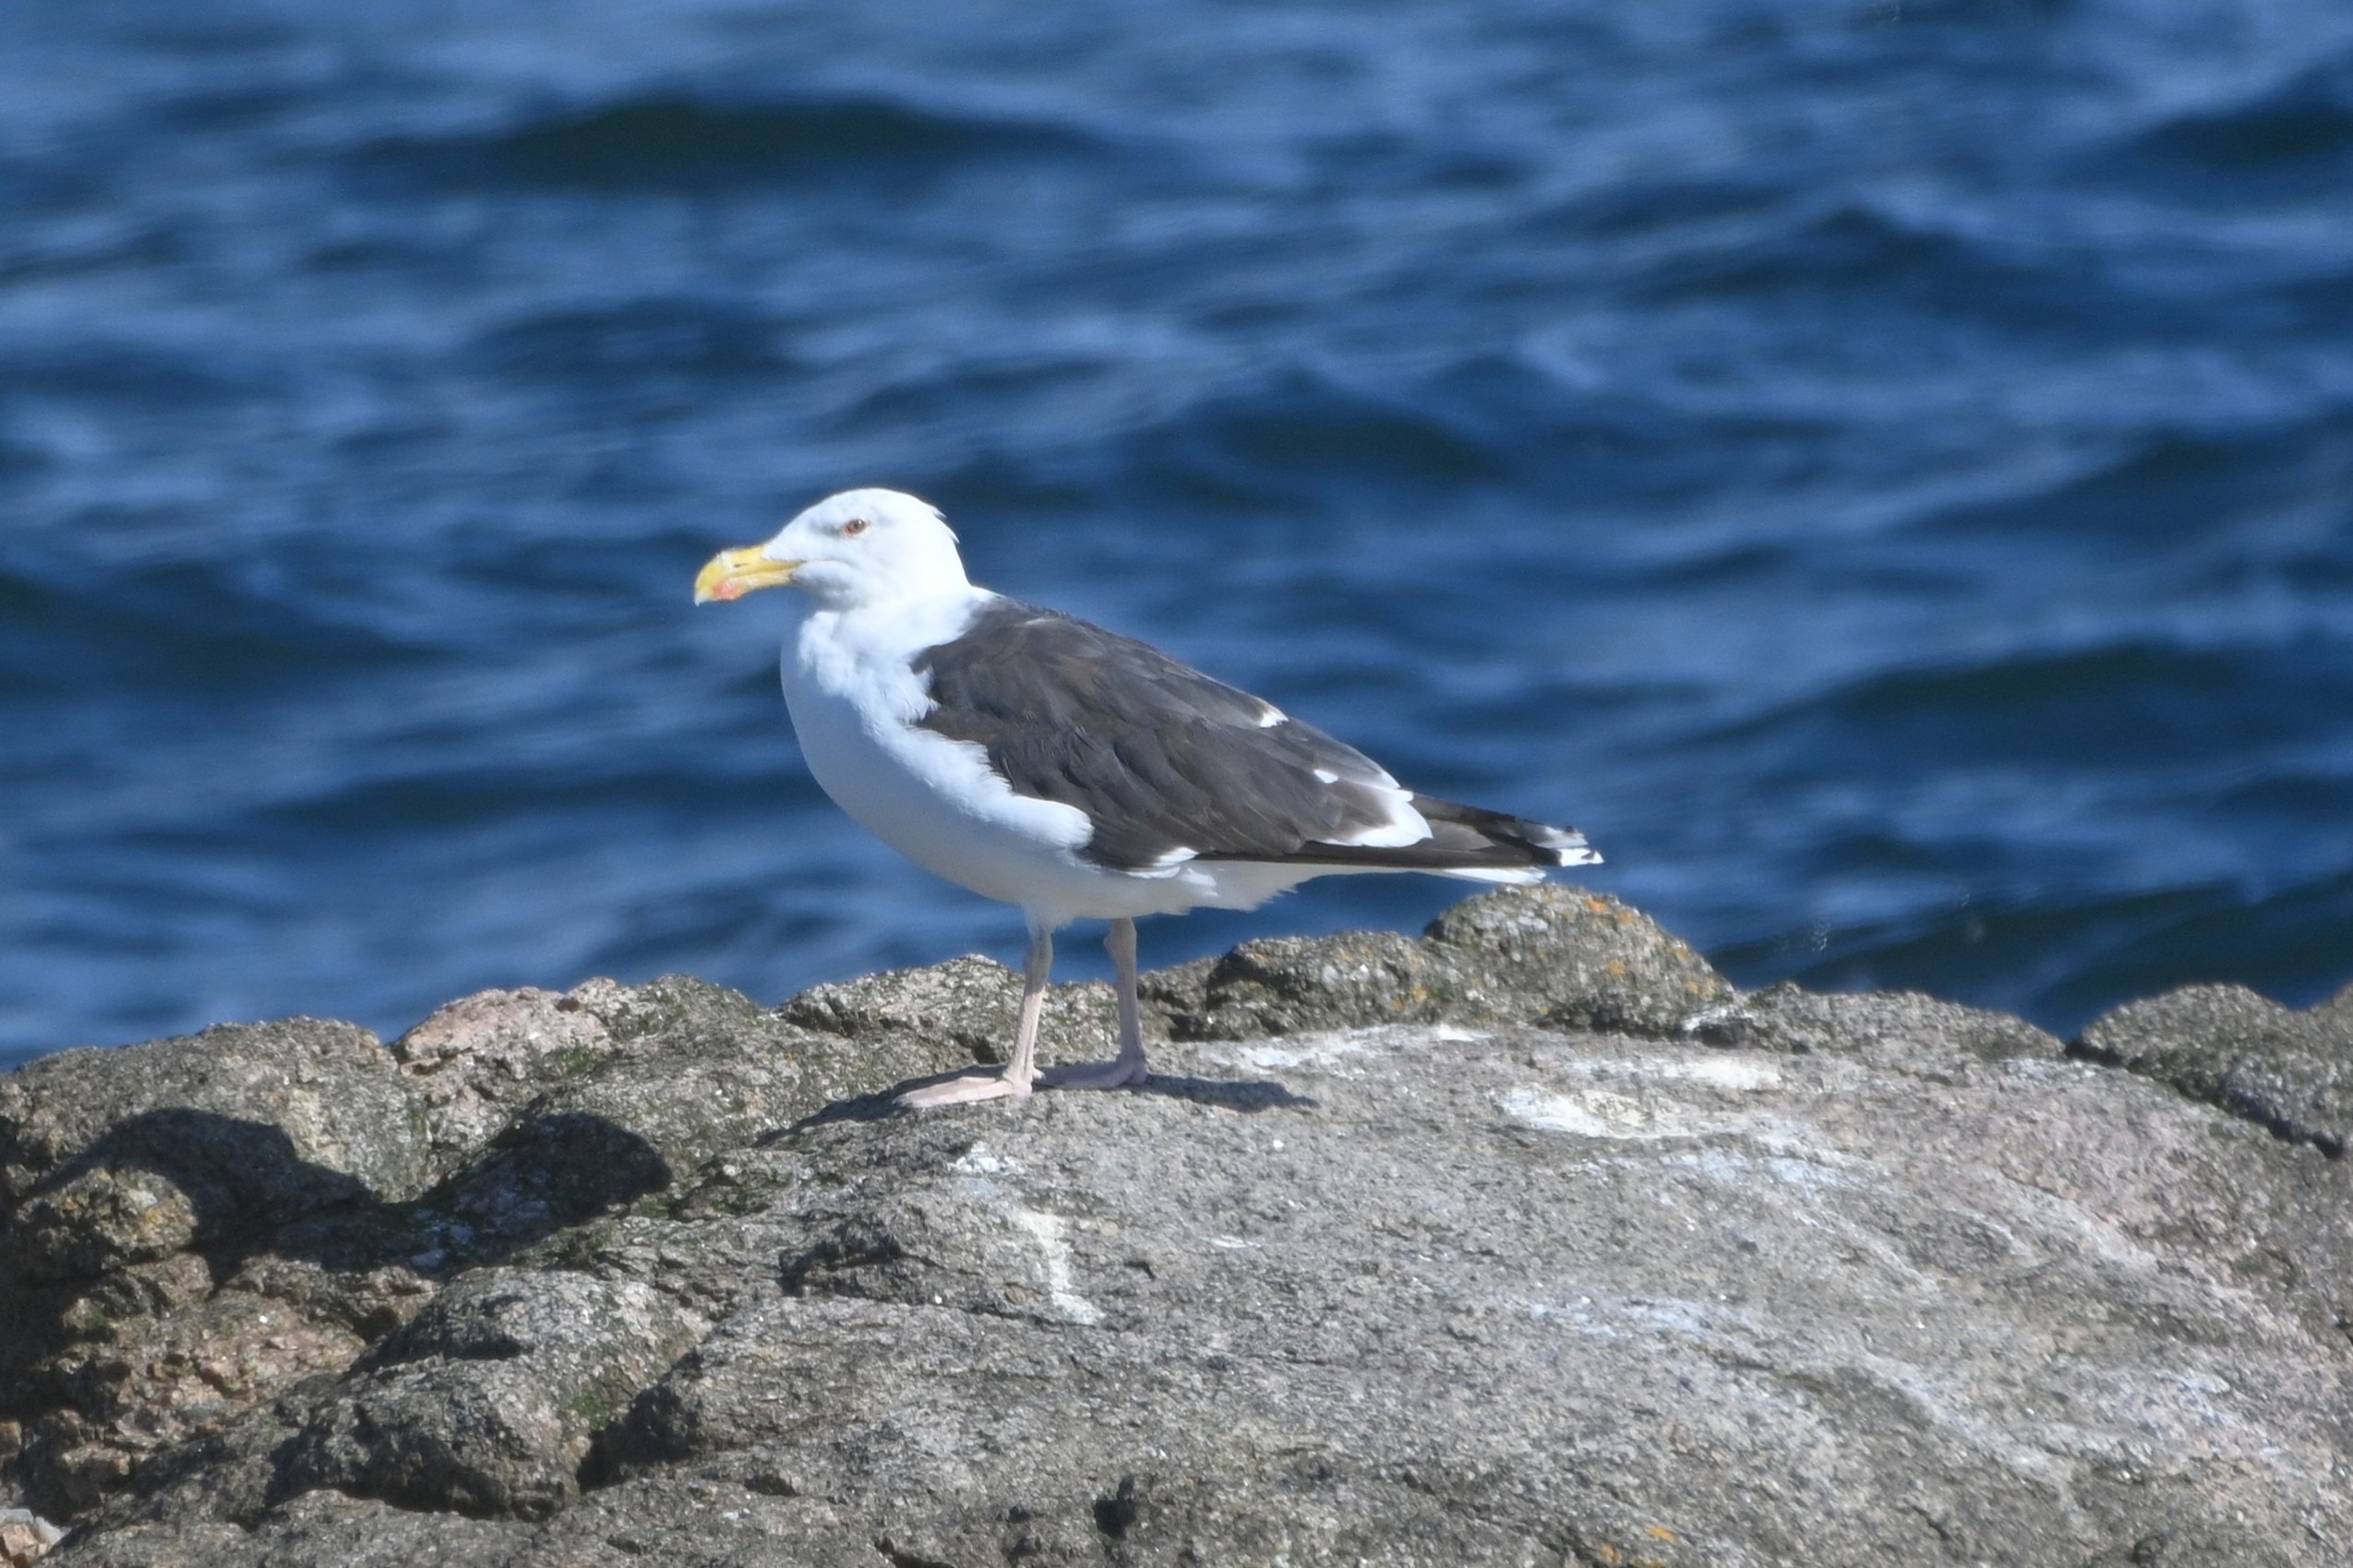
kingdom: Animalia
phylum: Chordata
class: Aves
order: Charadriiformes
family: Laridae
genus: Larus
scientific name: Larus marinus
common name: Svartbag
